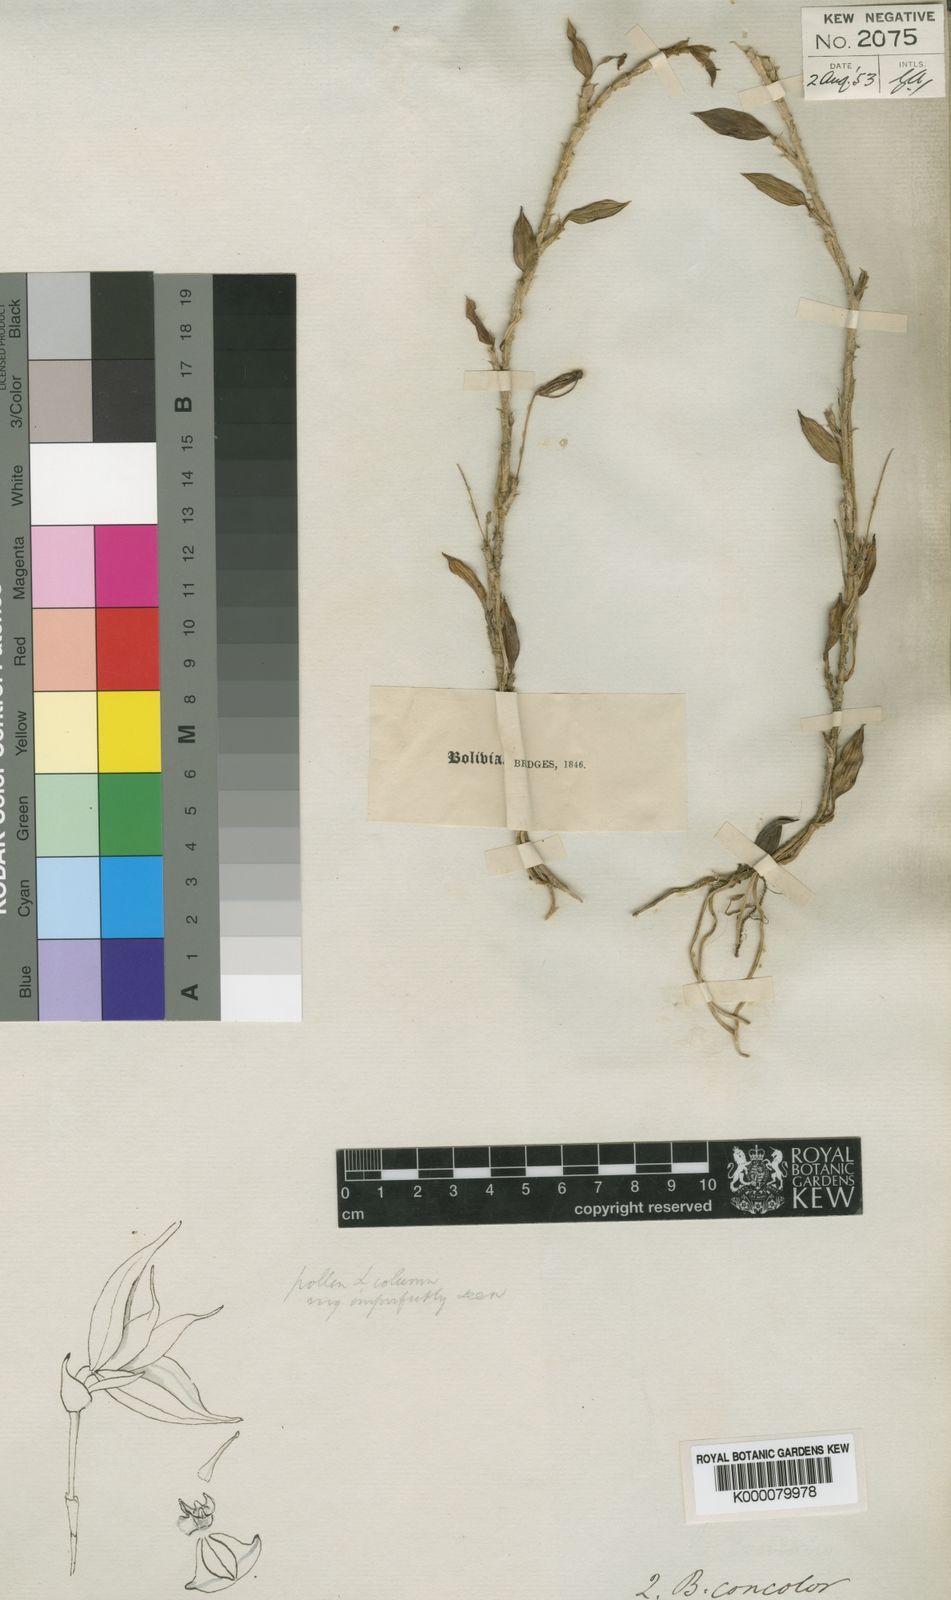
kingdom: Plantae
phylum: Tracheophyta
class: Liliopsida
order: Asparagales
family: Orchidaceae
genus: Brachionidium
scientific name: Brachionidium tuberculatum
